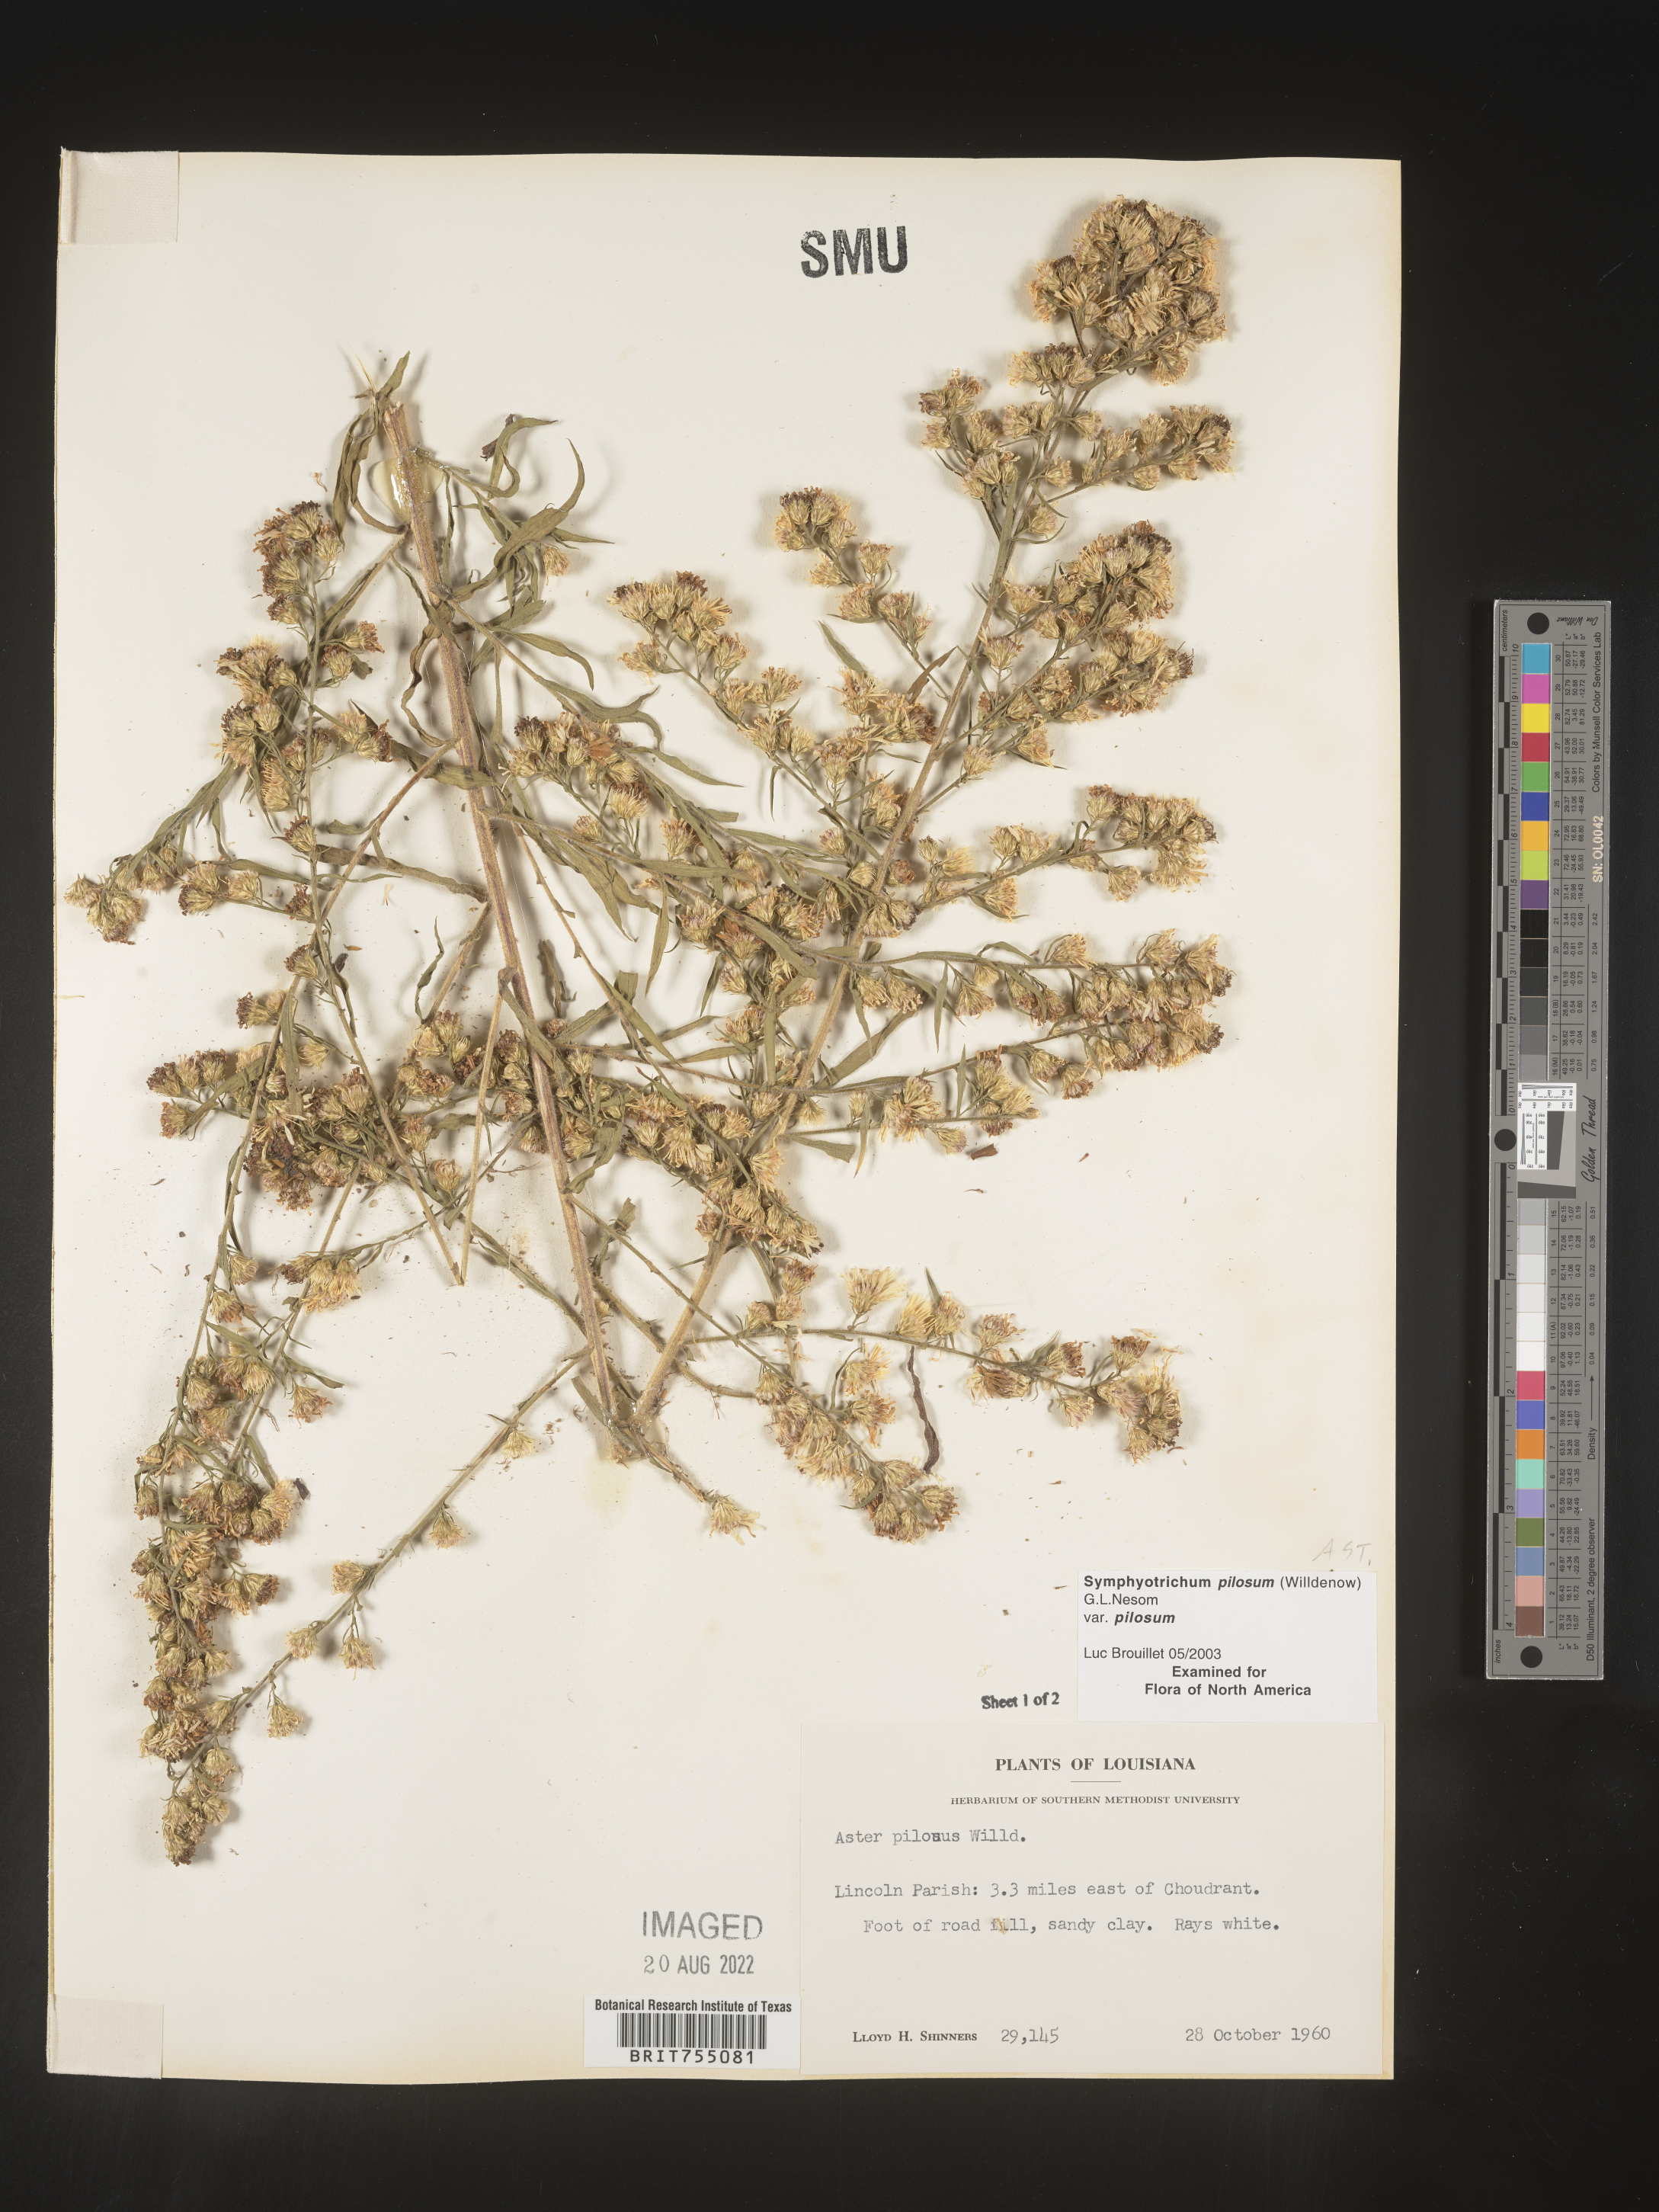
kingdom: Plantae
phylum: Tracheophyta
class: Magnoliopsida
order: Asterales
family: Asteraceae
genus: Symphyotrichum
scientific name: Symphyotrichum pilosum
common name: Awl aster
